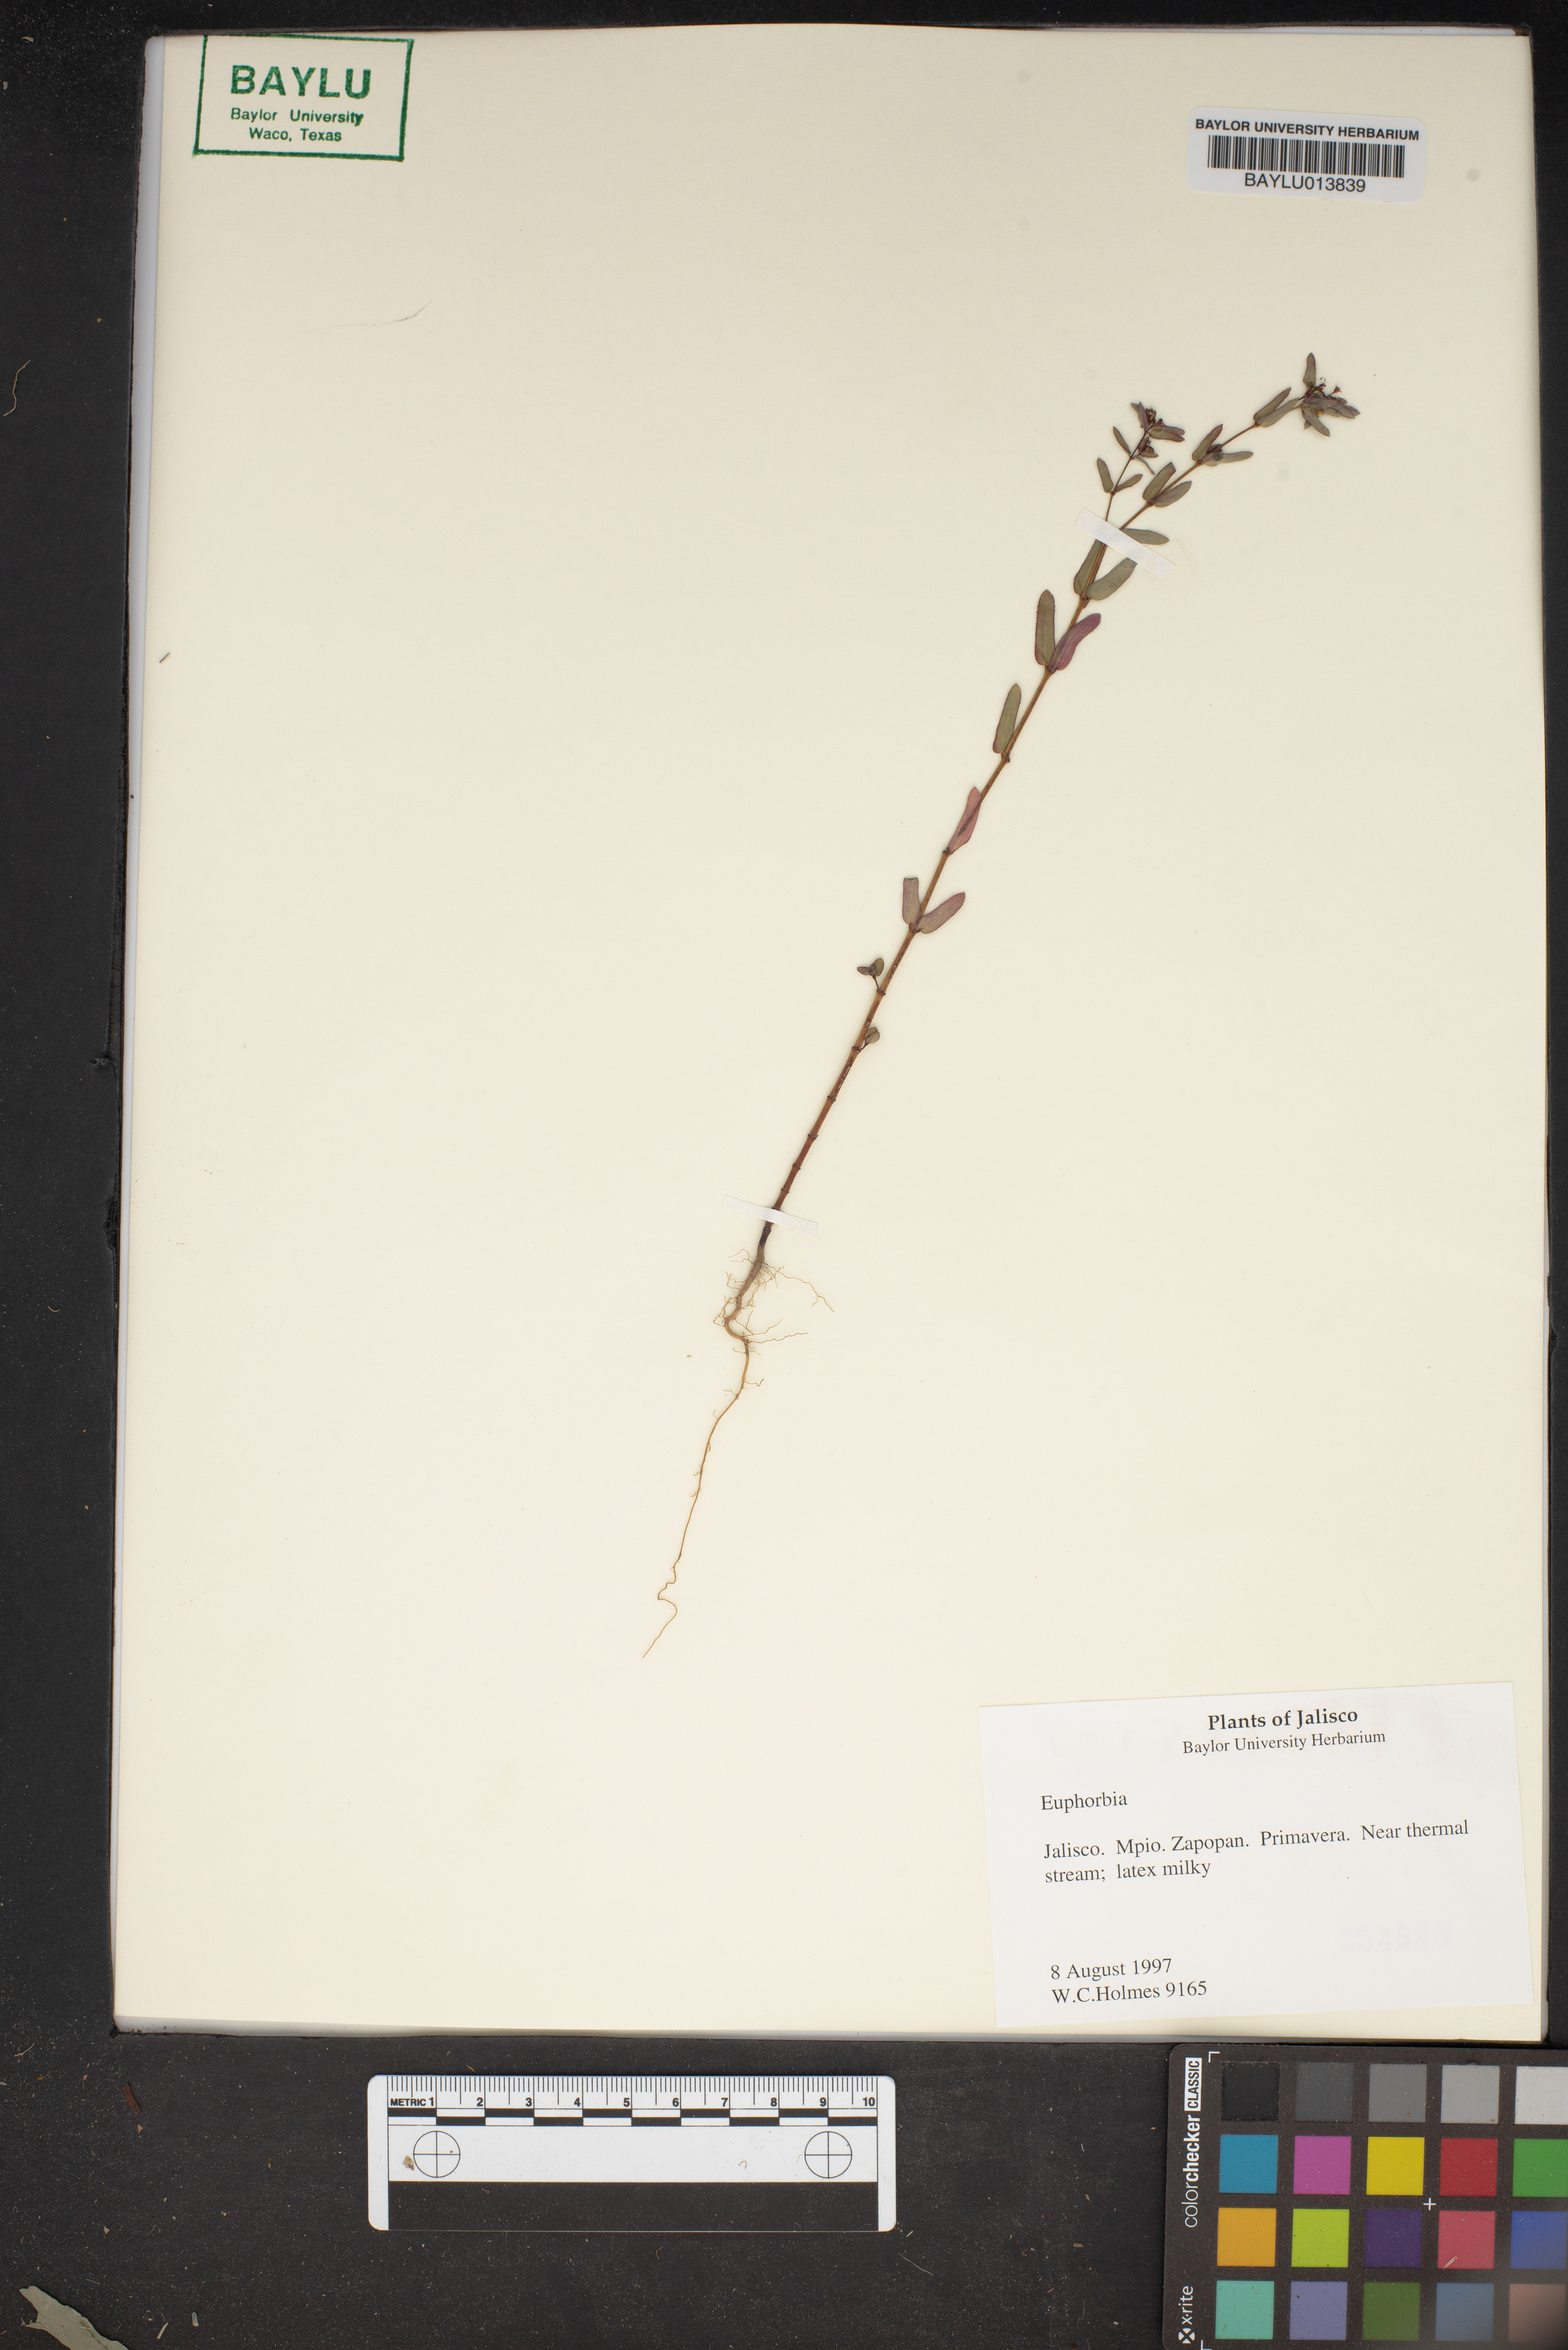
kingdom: Plantae
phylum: Tracheophyta
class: Magnoliopsida
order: Malpighiales
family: Euphorbiaceae
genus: Euphorbia
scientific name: Euphorbia
